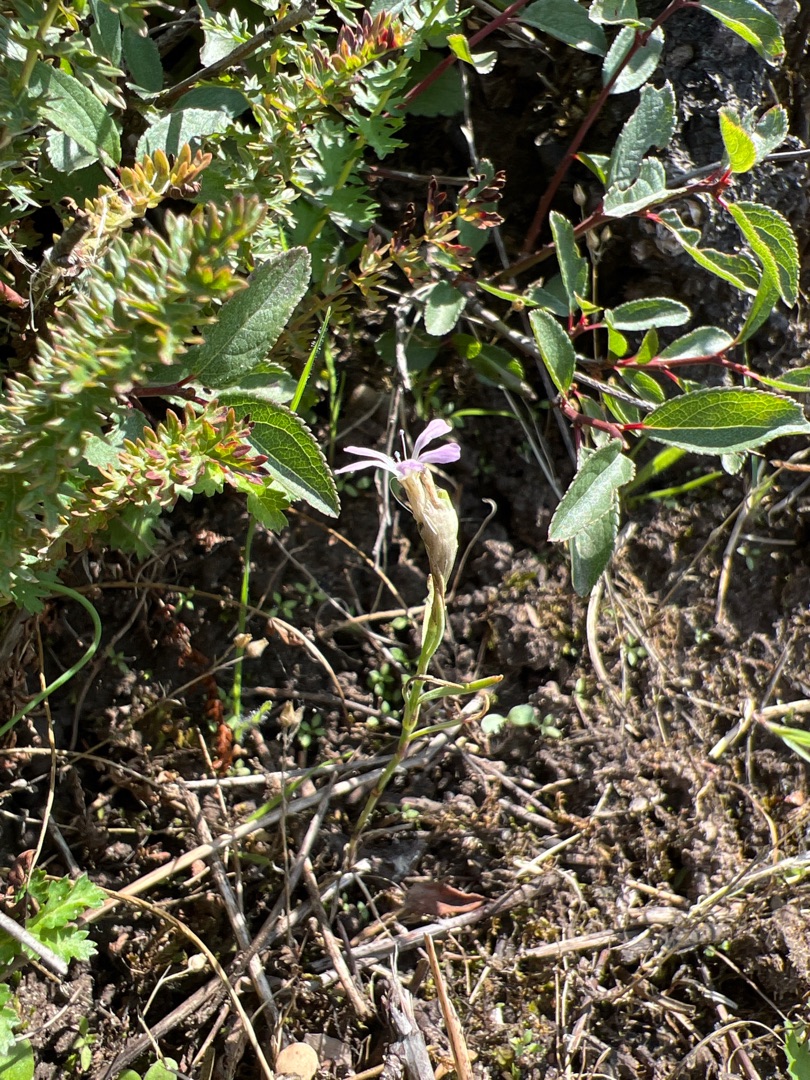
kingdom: Plantae
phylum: Tracheophyta
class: Magnoliopsida
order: Caryophyllales
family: Caryophyllaceae
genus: Petrorhagia
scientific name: Petrorhagia prolifera
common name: Knopnellike
